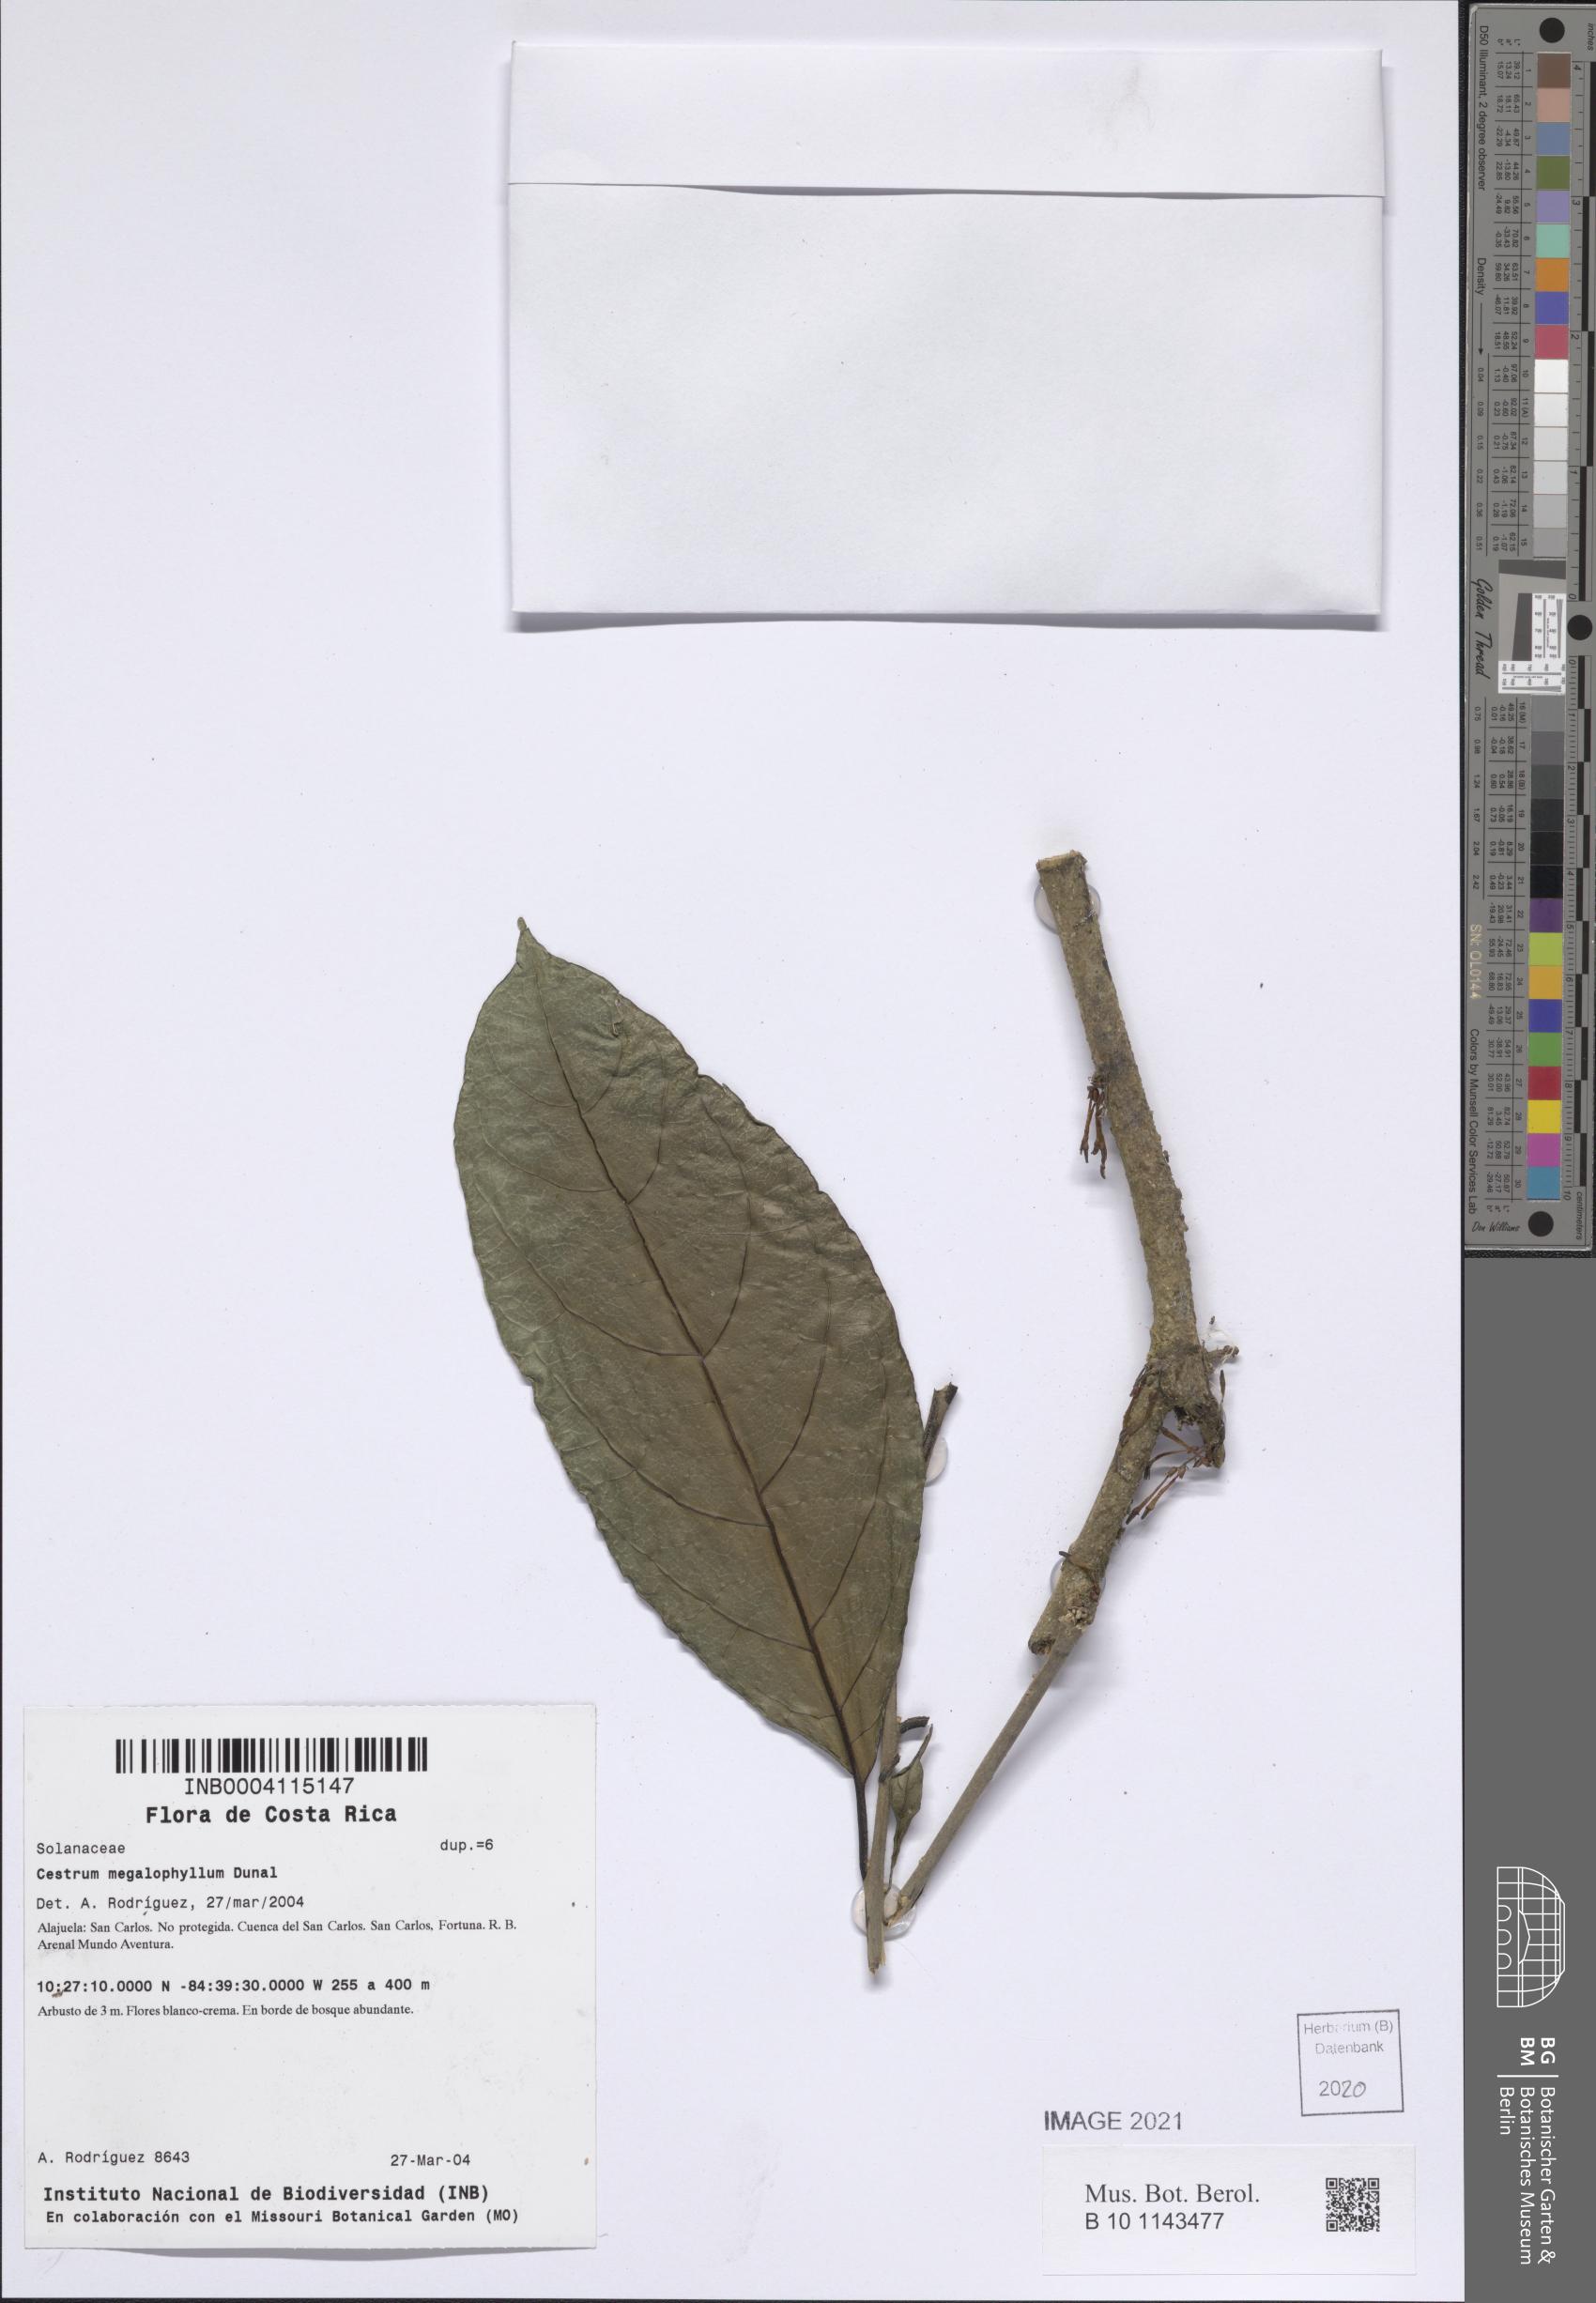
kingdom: Plantae
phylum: Tracheophyta
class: Magnoliopsida
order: Solanales
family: Solanaceae
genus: Cestrum
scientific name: Cestrum megalophyllum
